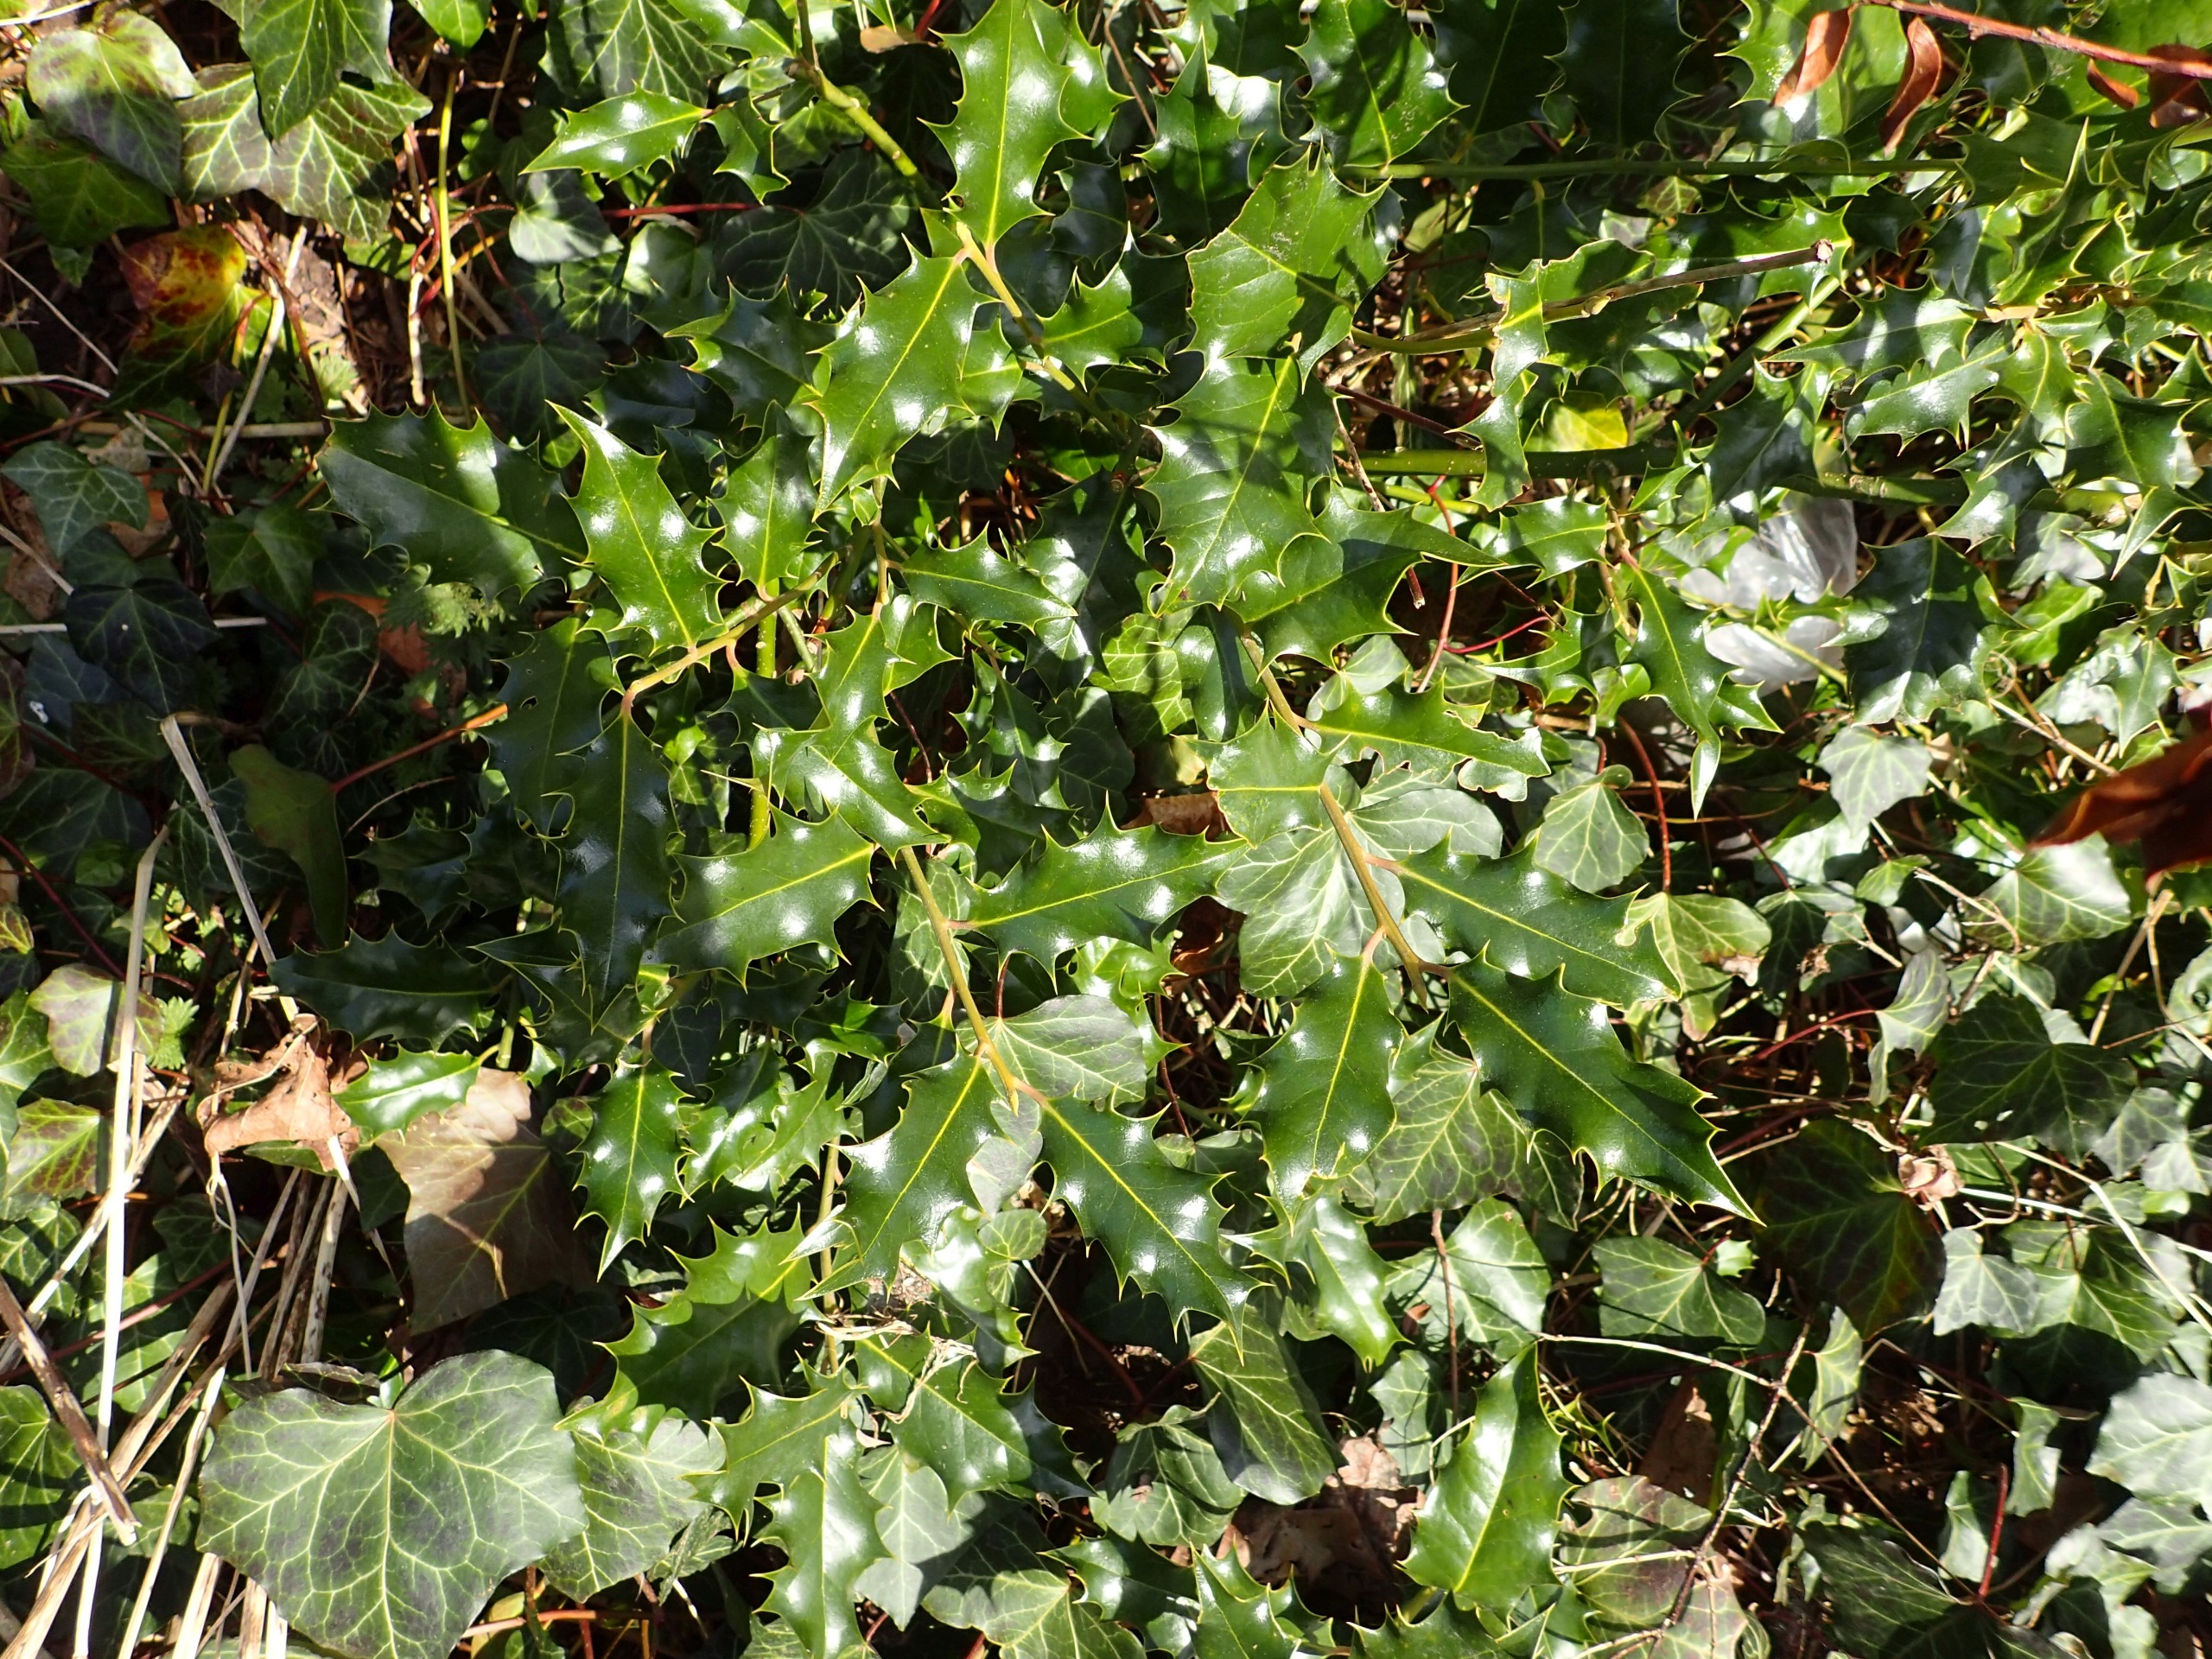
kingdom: Plantae
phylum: Tracheophyta
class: Magnoliopsida
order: Aquifoliales
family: Aquifoliaceae
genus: Ilex
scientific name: Ilex aquifolium
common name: Kristtorn
